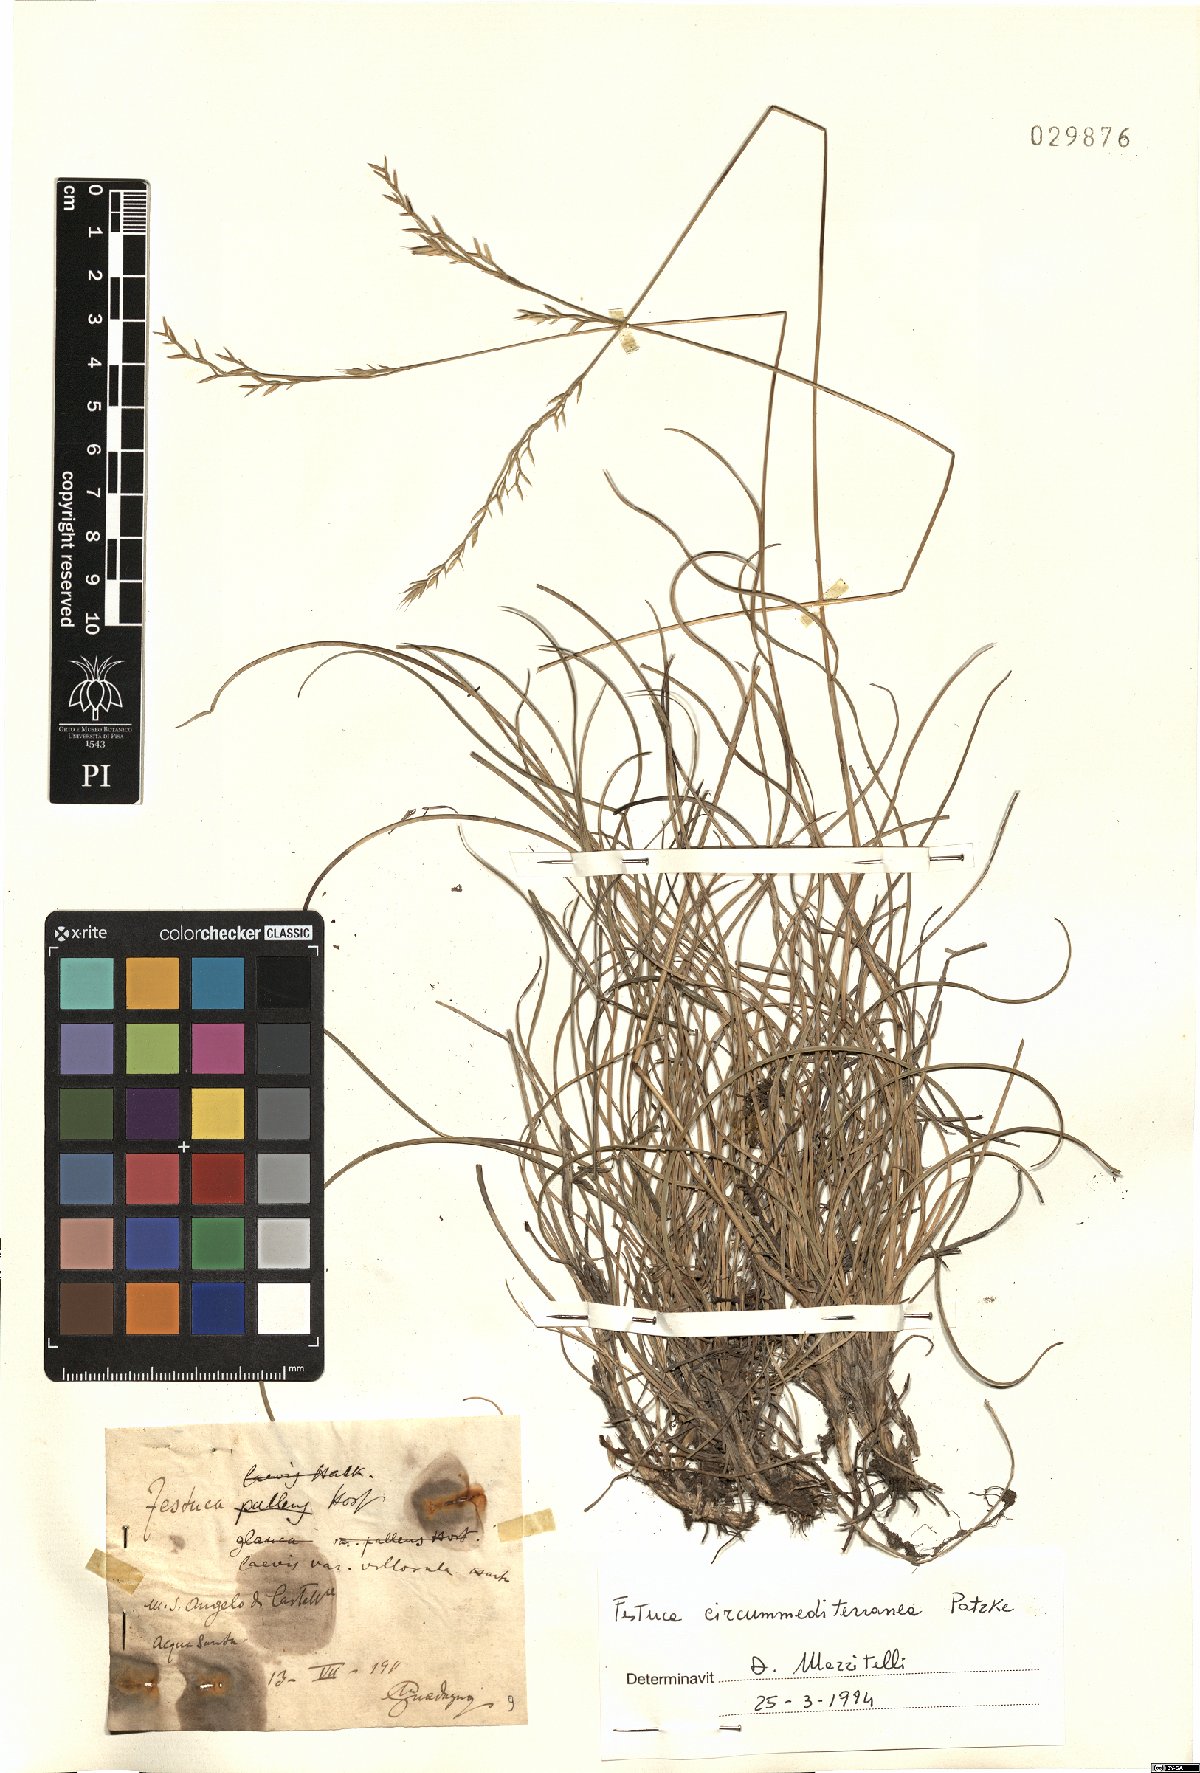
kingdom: Plantae
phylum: Tracheophyta
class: Liliopsida
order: Poales
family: Poaceae
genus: Festuca
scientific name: Festuca circummediterranea
